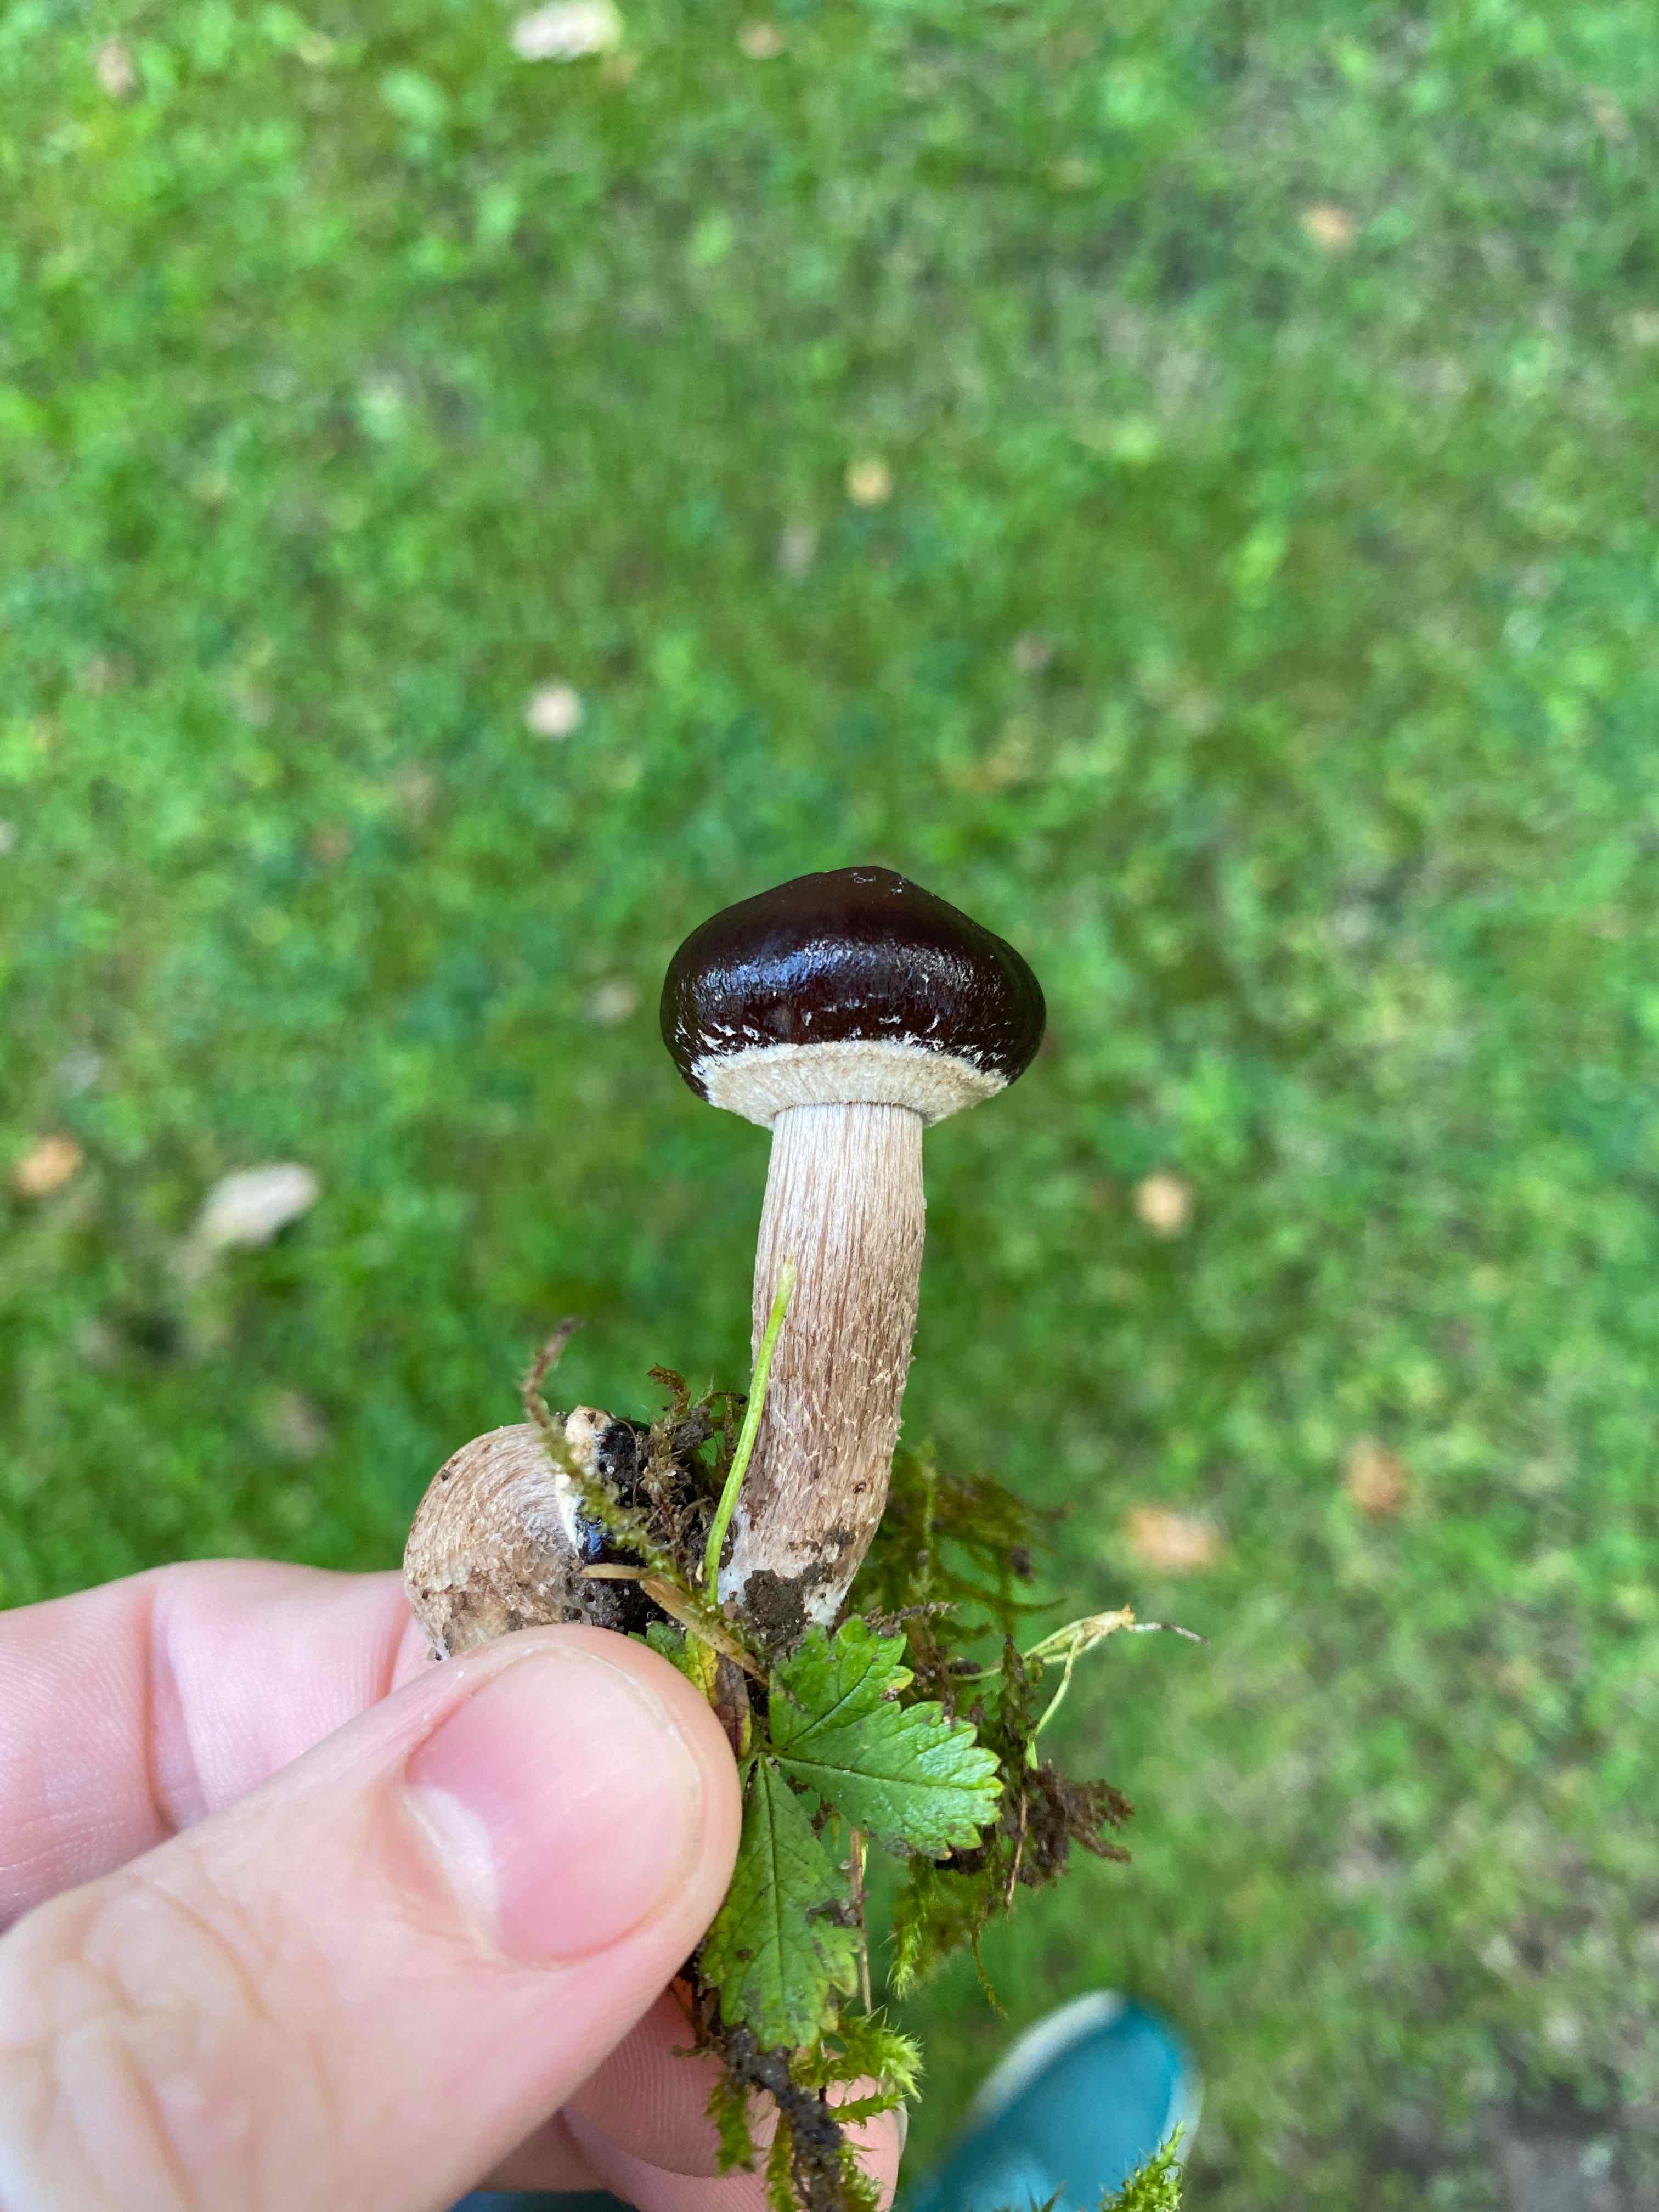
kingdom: Fungi
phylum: Basidiomycota
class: Agaricomycetes
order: Agaricales
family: Tubariaceae
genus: Cyclocybe
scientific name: Cyclocybe erebia
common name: mørk agerhat
